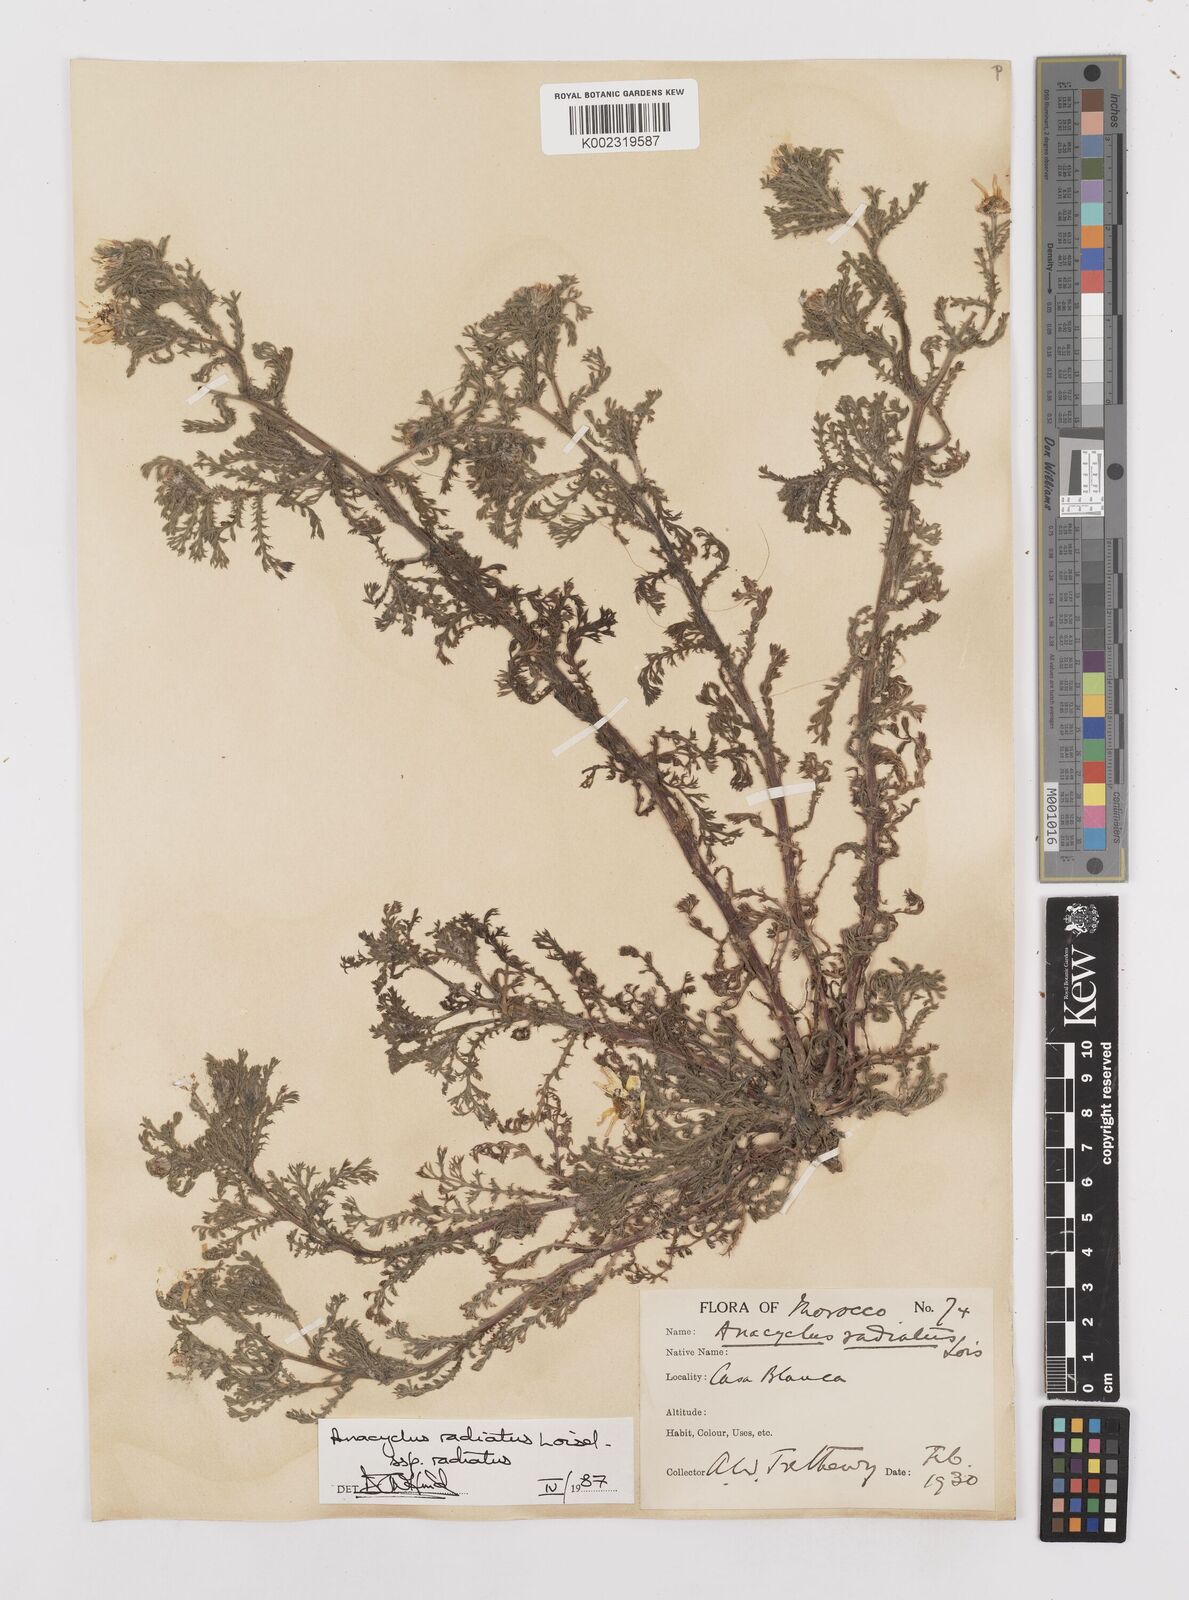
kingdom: Plantae
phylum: Tracheophyta
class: Magnoliopsida
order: Asterales
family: Asteraceae
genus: Anacyclus
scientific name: Anacyclus radiatus
